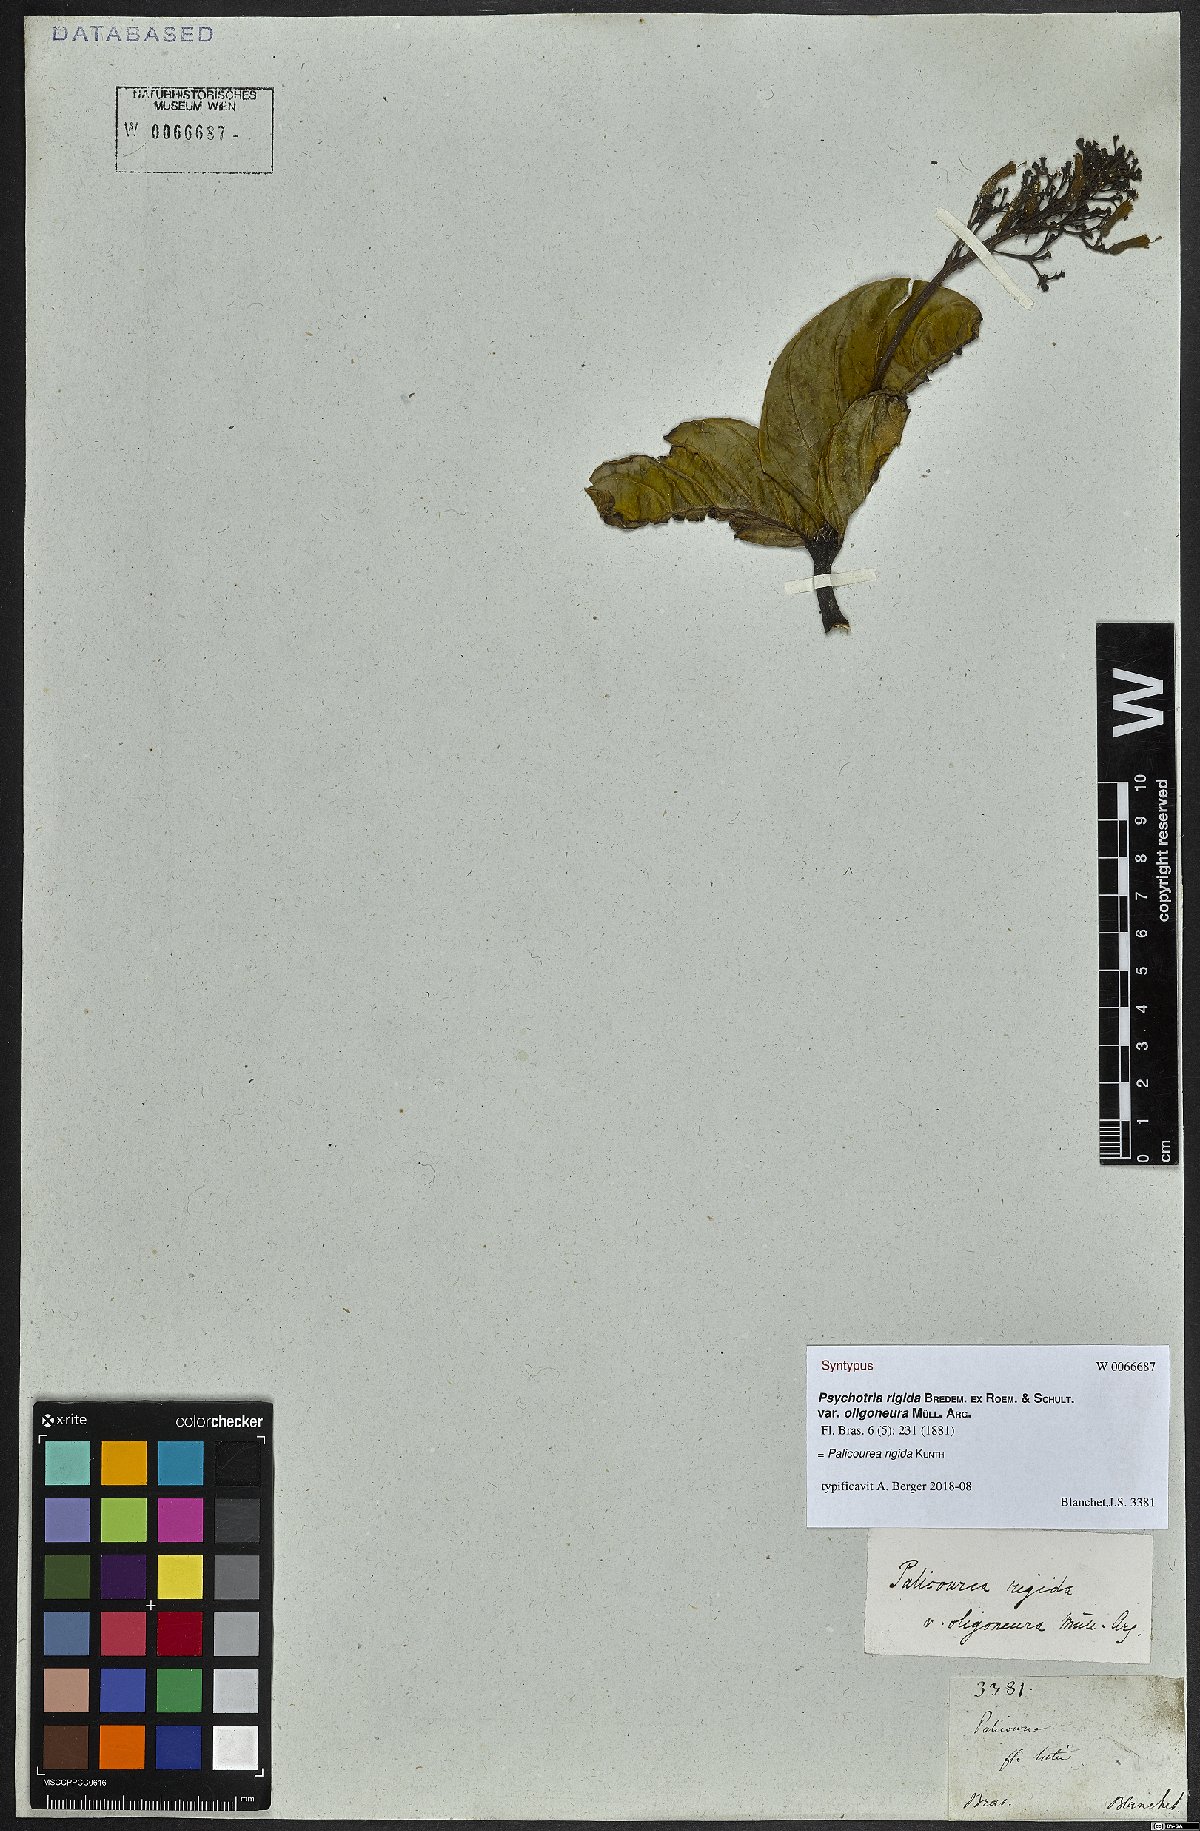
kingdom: Plantae
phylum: Tracheophyta
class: Magnoliopsida
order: Gentianales
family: Rubiaceae
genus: Palicourea
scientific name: Palicourea rigida
